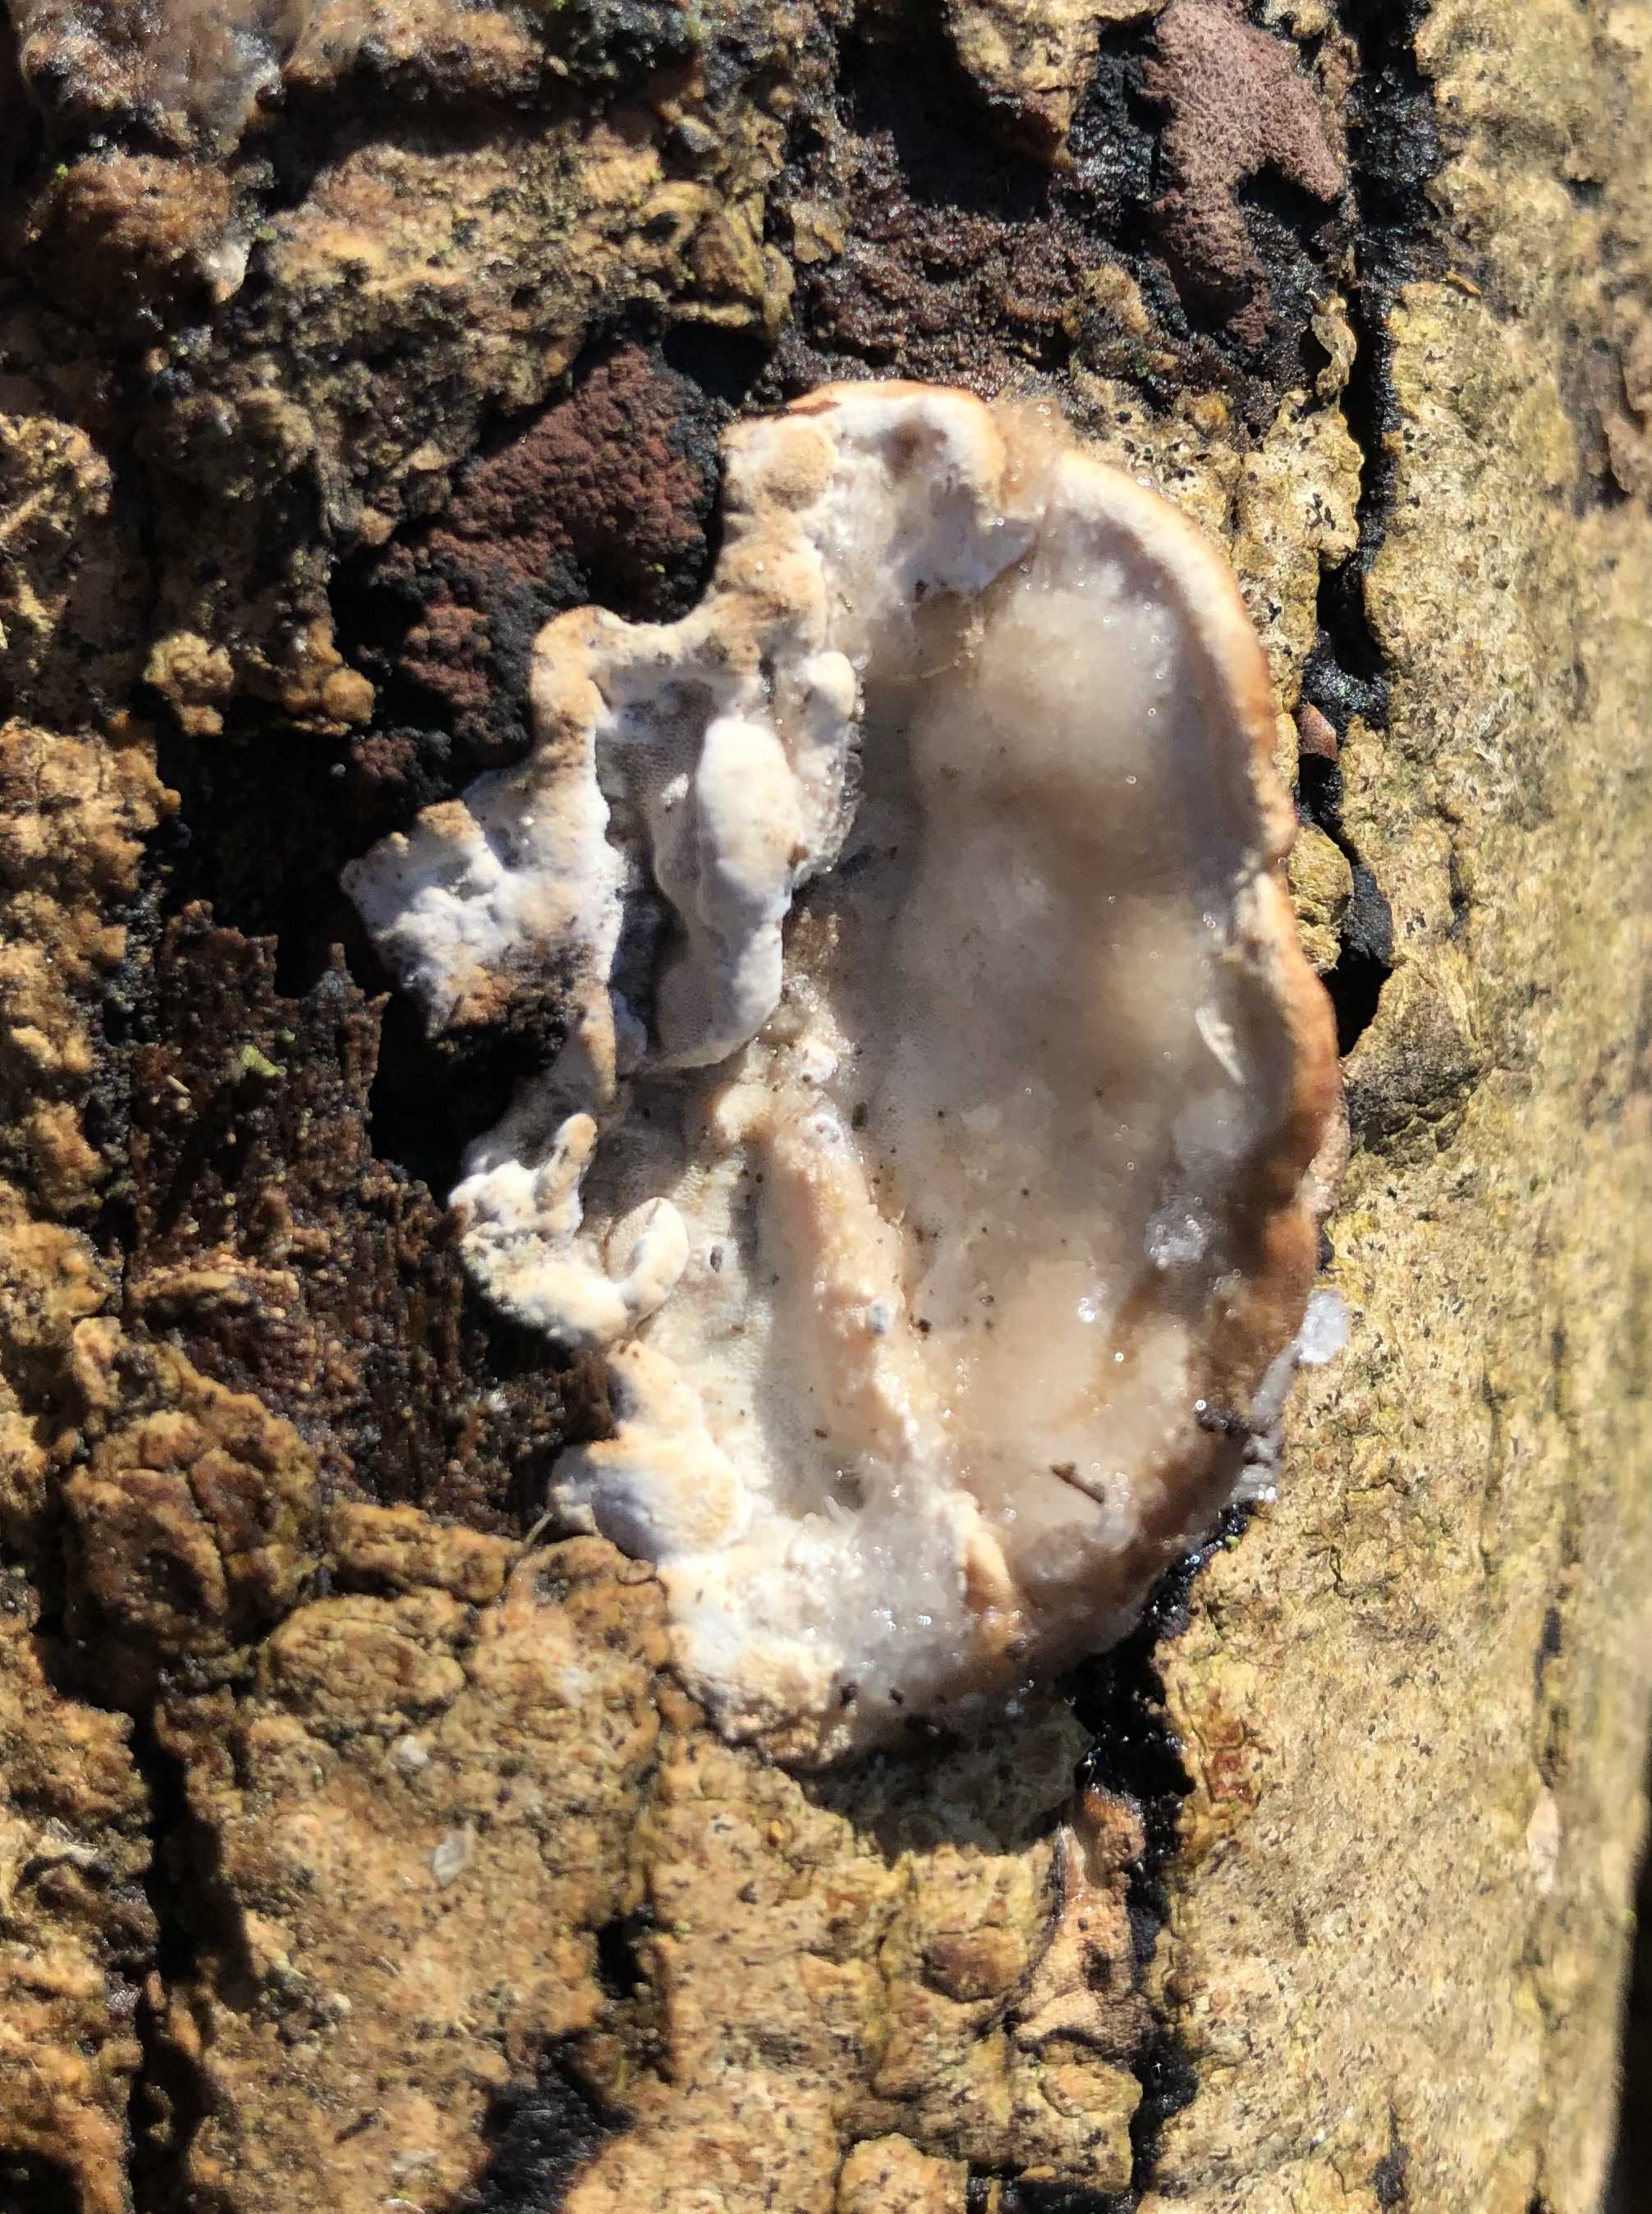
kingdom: Fungi
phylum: Basidiomycota
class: Agaricomycetes
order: Polyporales
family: Incrustoporiaceae
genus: Skeletocutis
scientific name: Skeletocutis nemoralis
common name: stor krystalporesvamp
